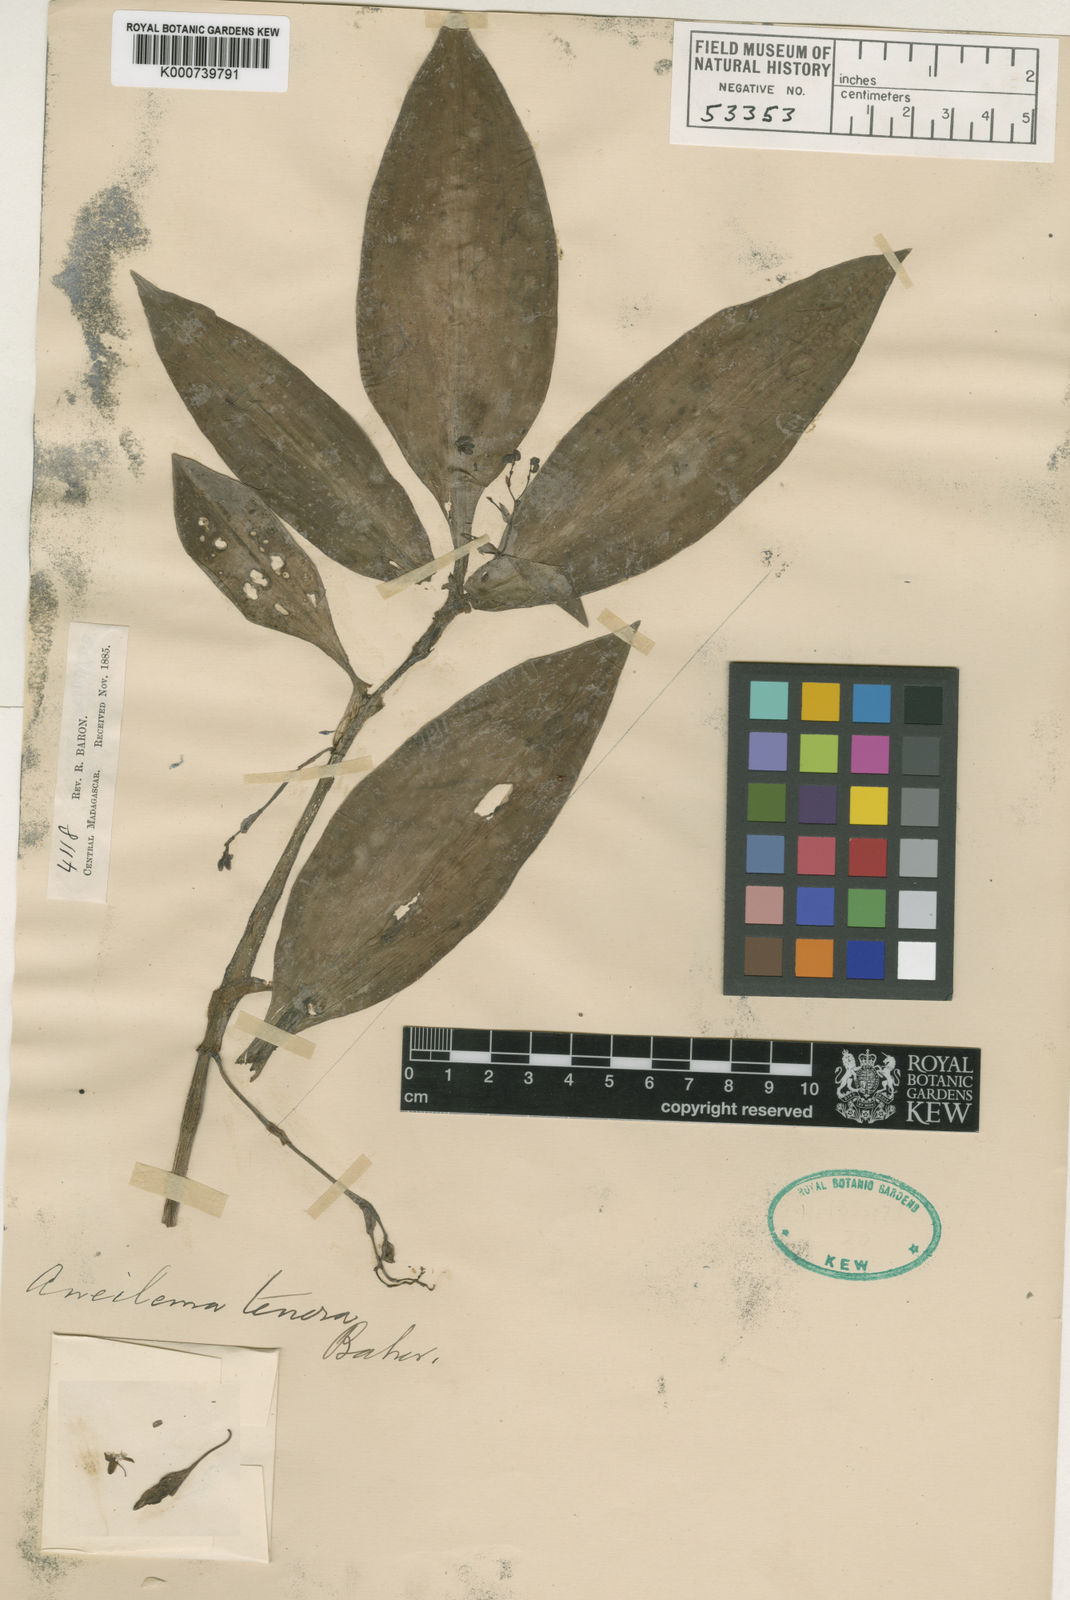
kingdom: Plantae
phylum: Tracheophyta
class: Liliopsida
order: Commelinales
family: Commelinaceae
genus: Pseudoparis
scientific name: Pseudoparis tenera
